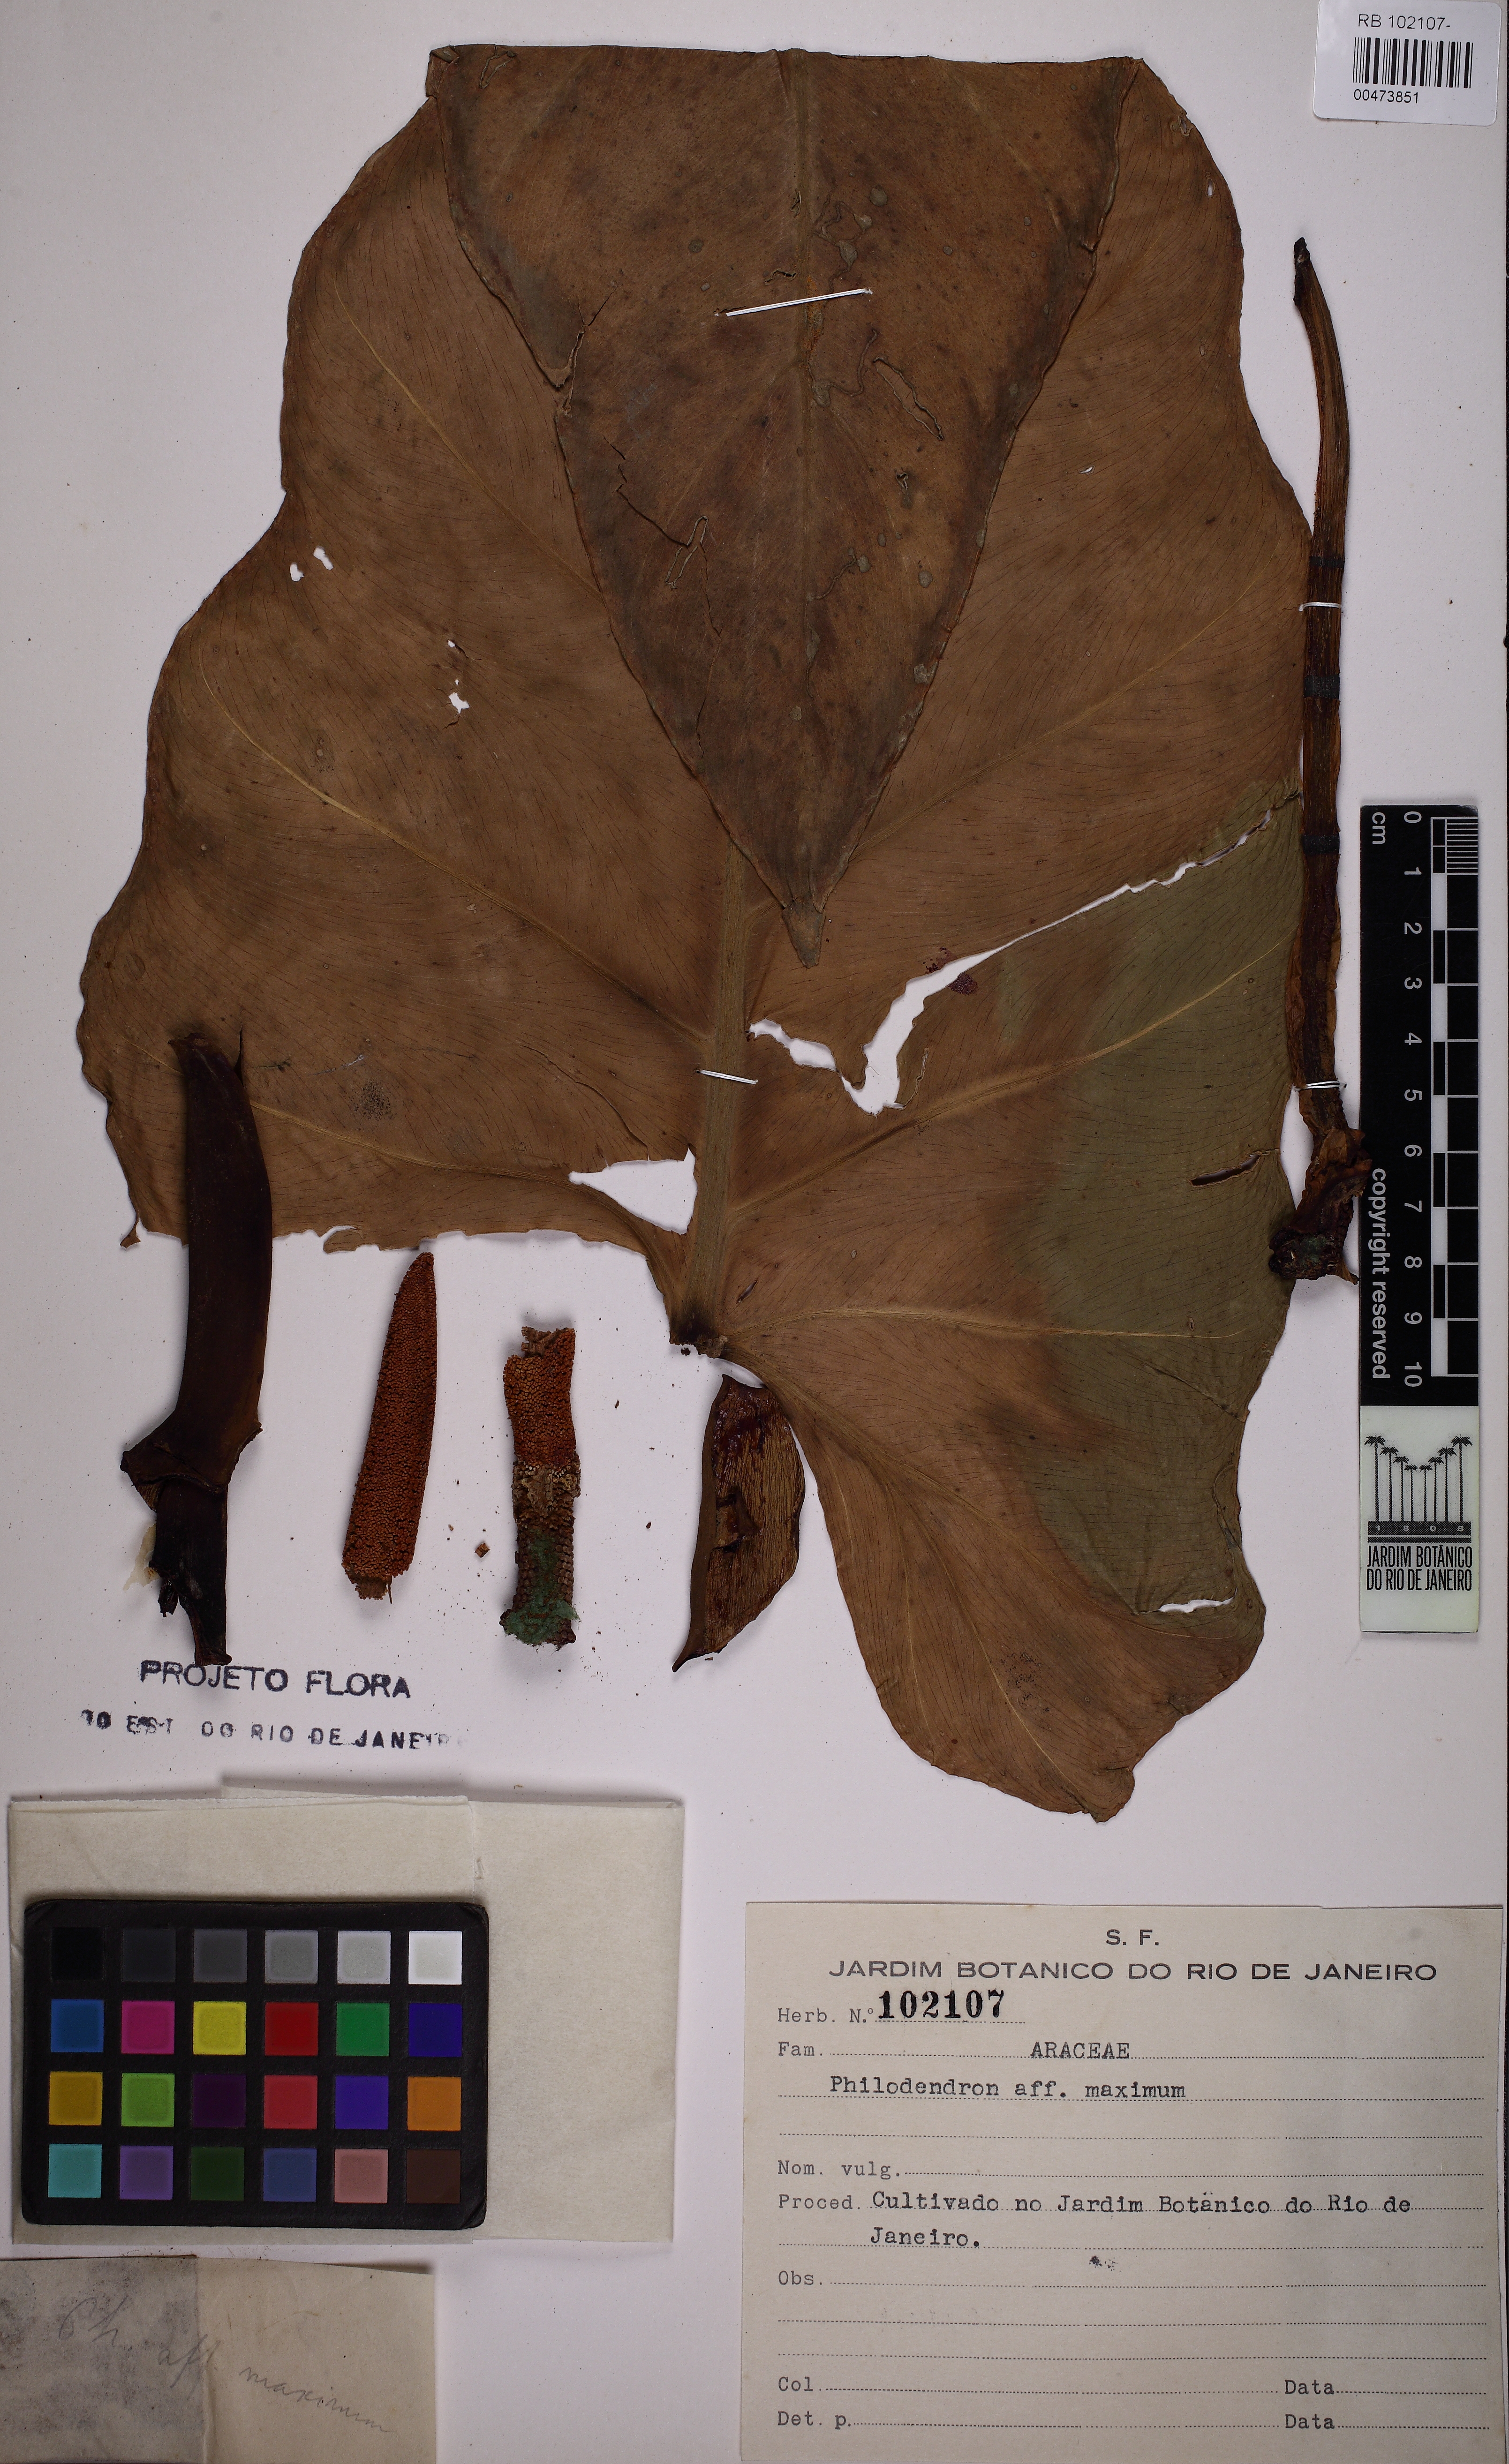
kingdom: Plantae
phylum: Tracheophyta
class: Liliopsida
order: Alismatales
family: Araceae
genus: Philodendron
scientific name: Philodendron maximum
